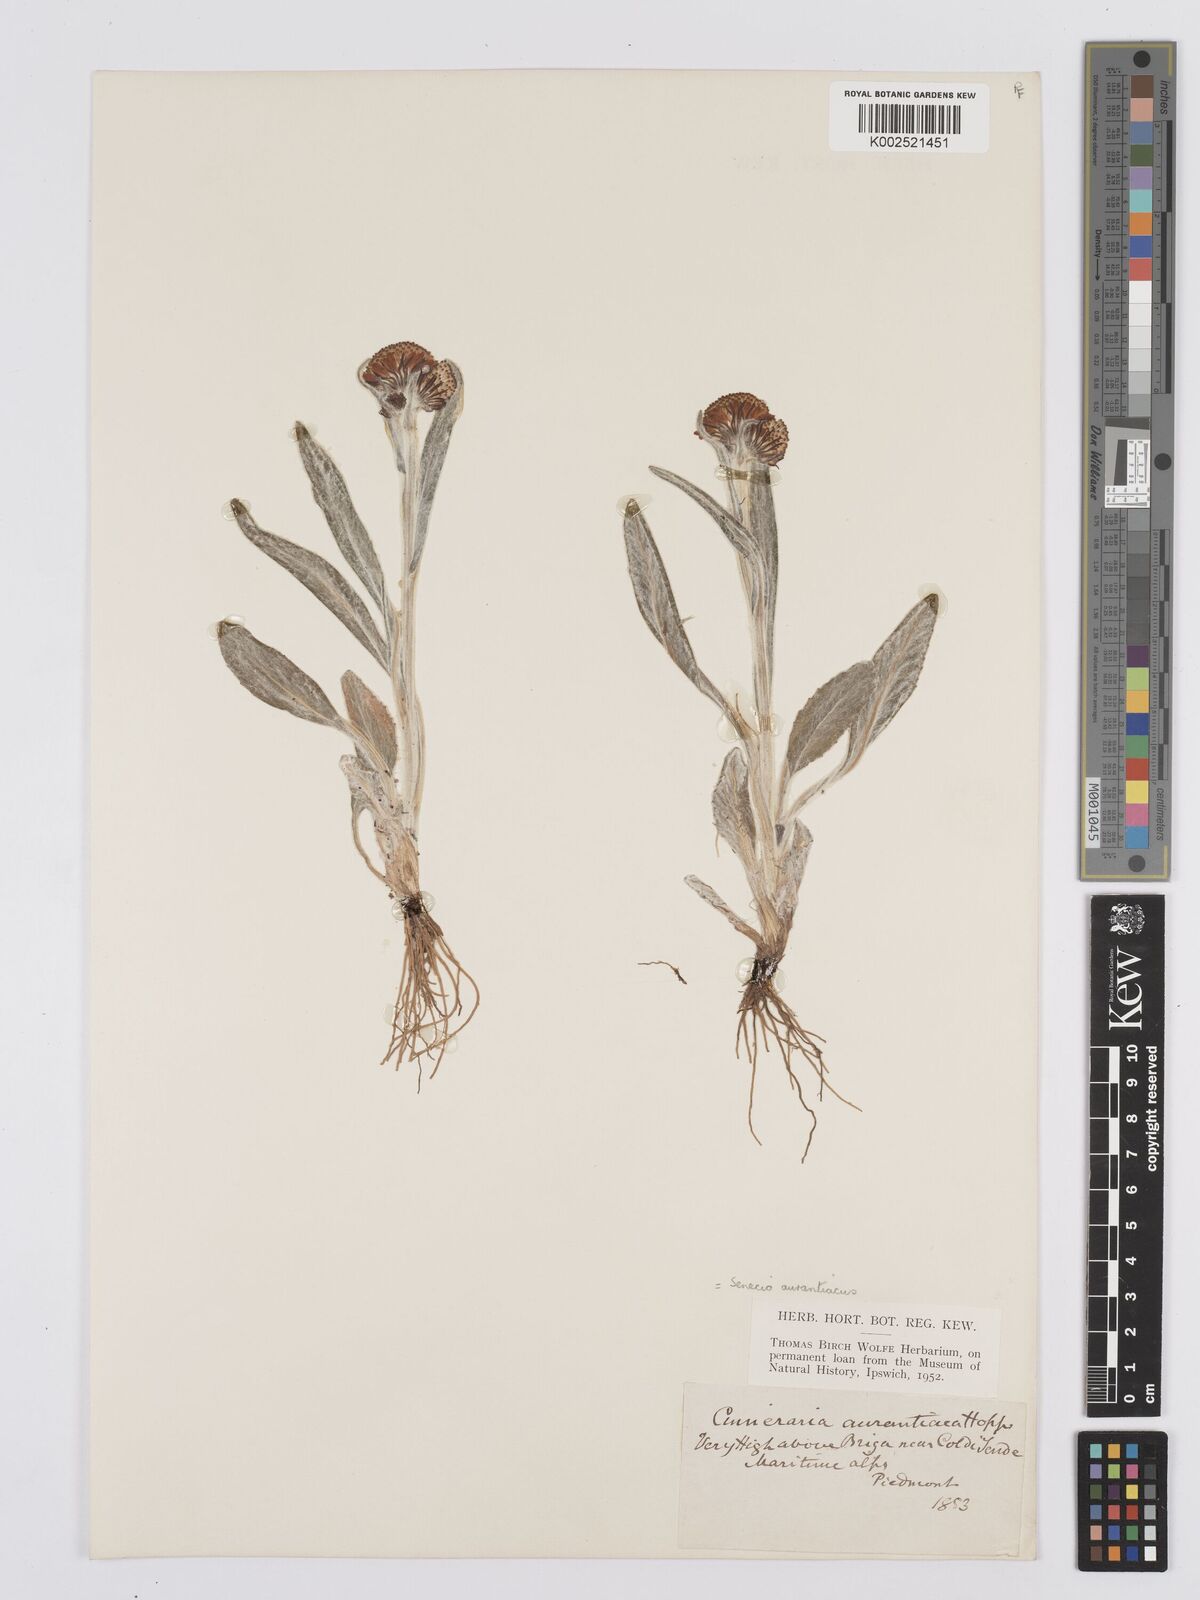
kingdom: Plantae
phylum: Tracheophyta
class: Magnoliopsida
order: Asterales
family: Asteraceae
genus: Tephroseris
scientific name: Tephroseris integrifolia
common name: Field fleawort
